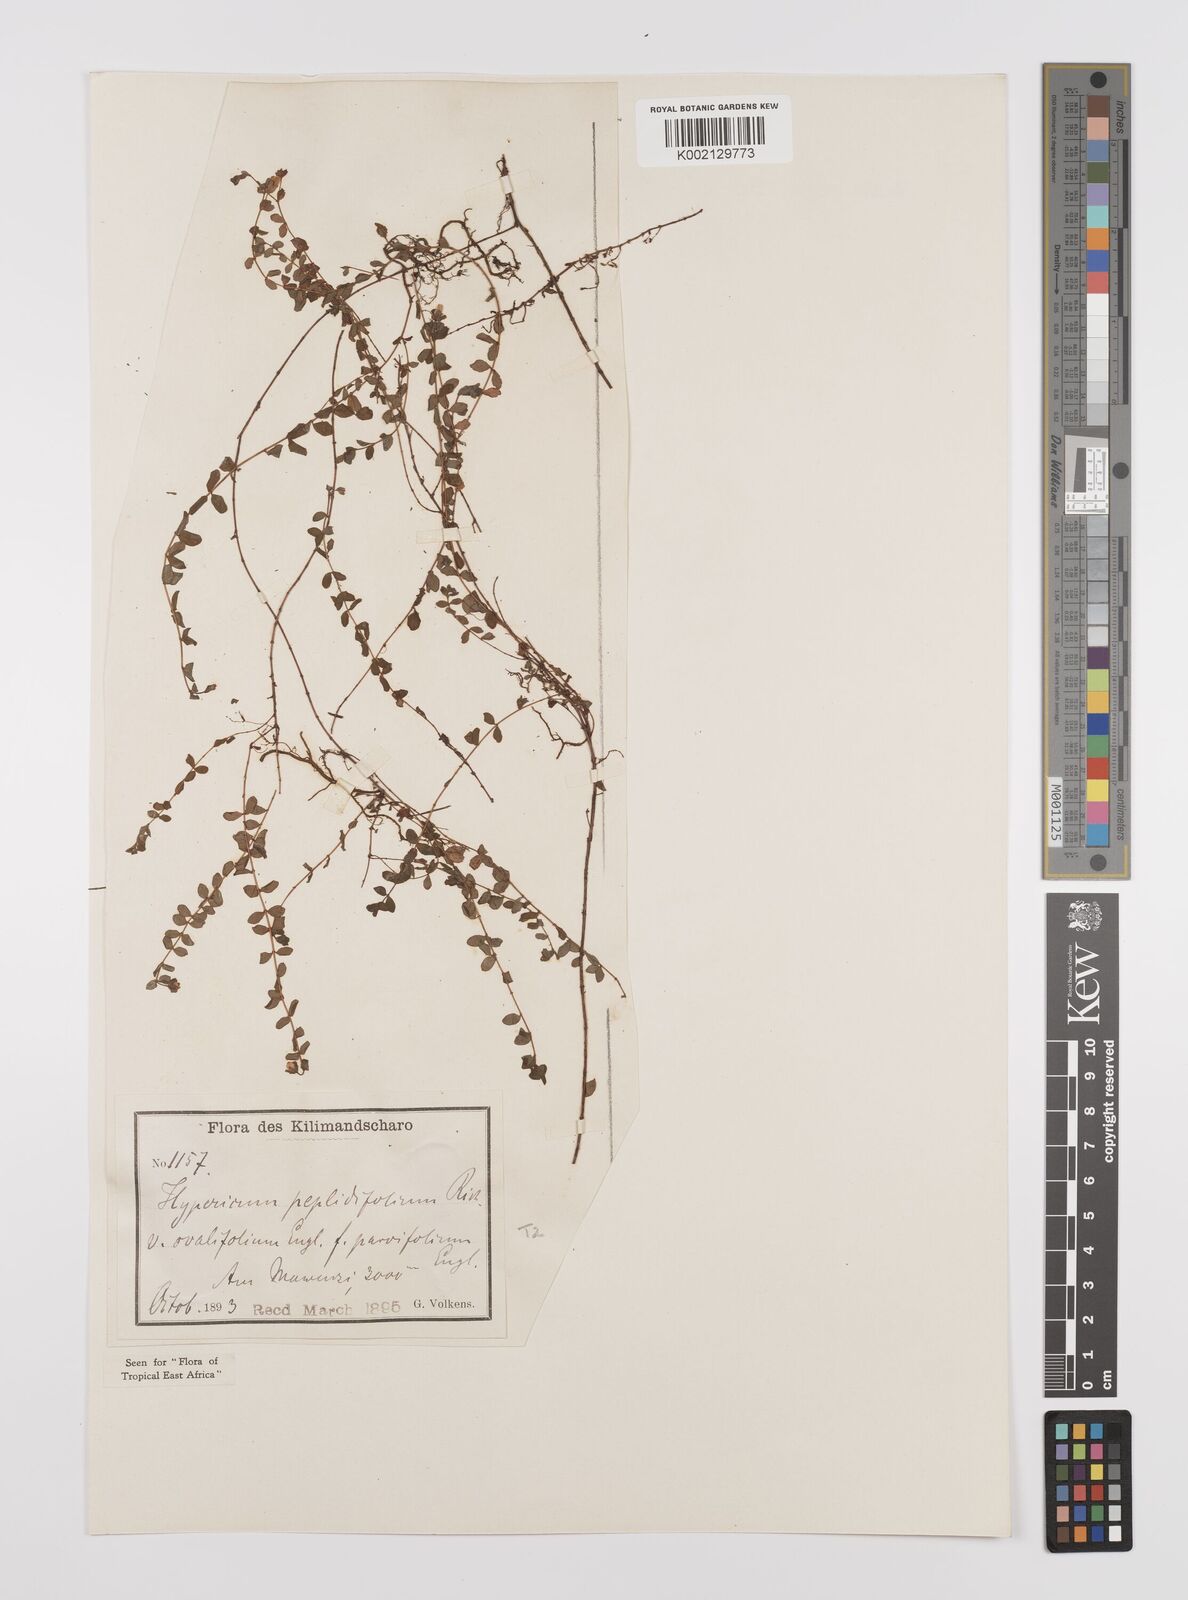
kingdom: Plantae
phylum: Tracheophyta
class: Magnoliopsida
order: Malpighiales
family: Hypericaceae
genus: Hypericum
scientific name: Hypericum peplidifolium
